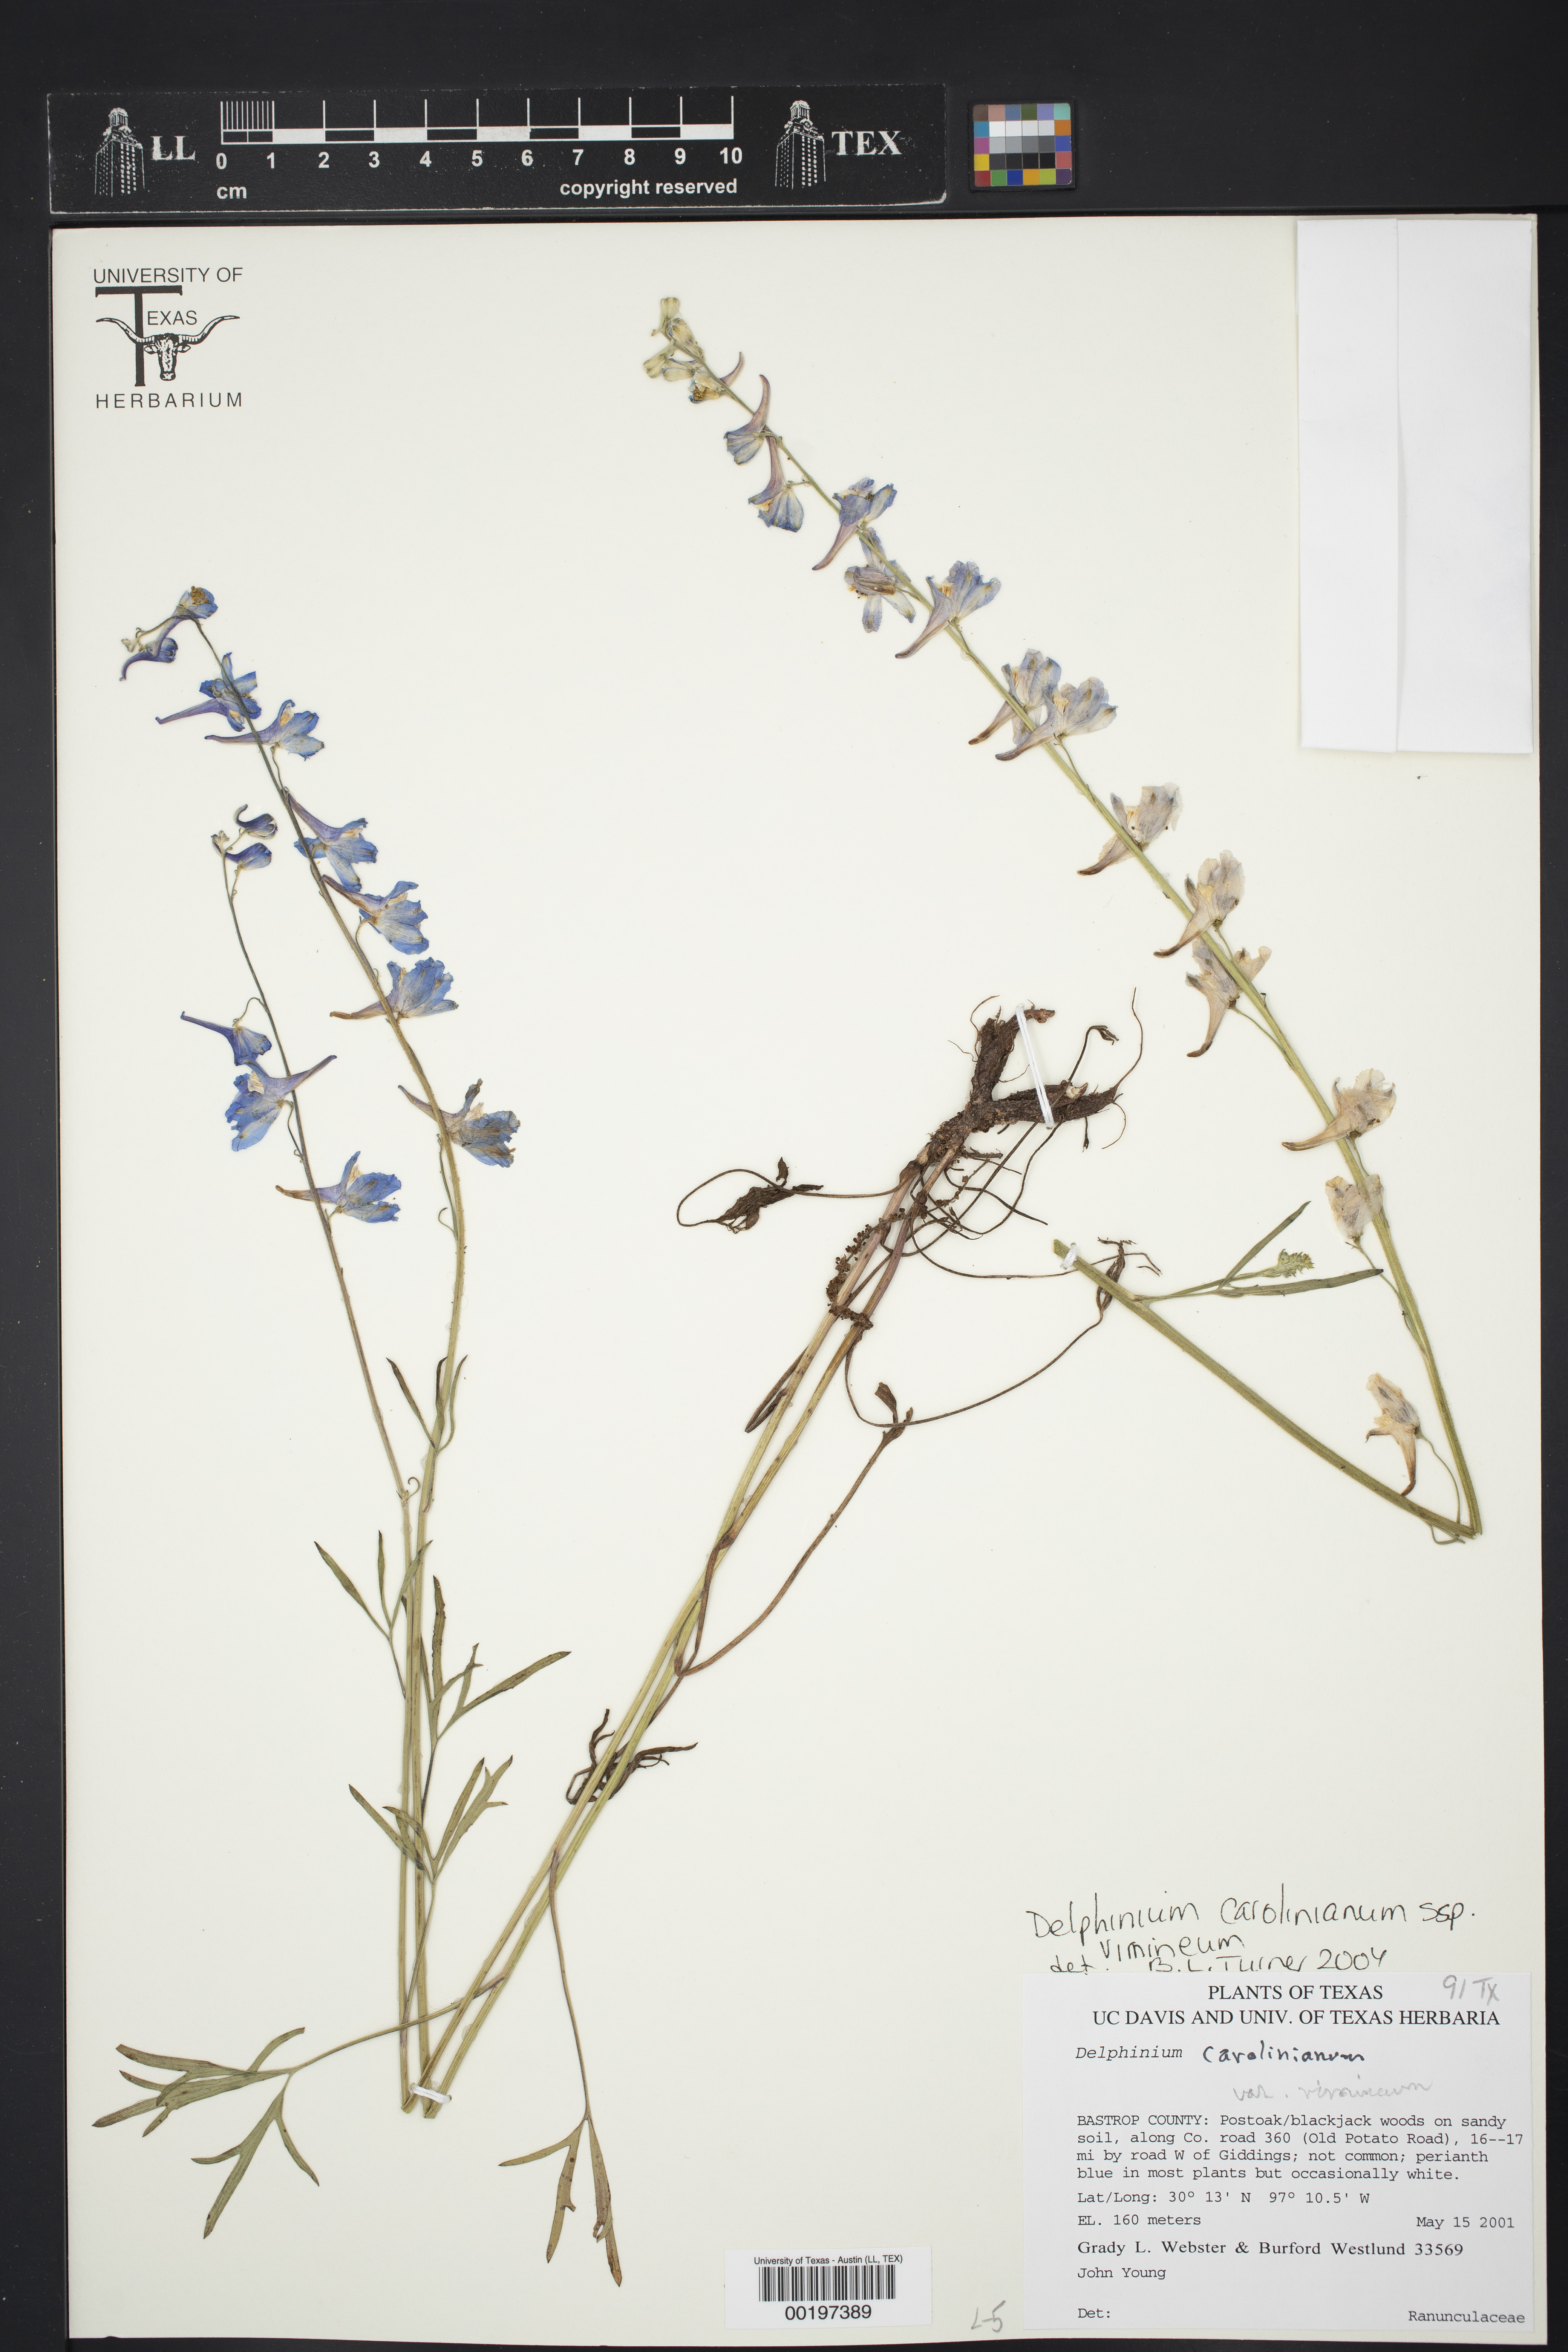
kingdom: Plantae
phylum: Tracheophyta
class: Magnoliopsida
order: Ranunculales
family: Ranunculaceae
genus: Delphinium
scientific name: Delphinium carolinianum
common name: Carolina larkspur
